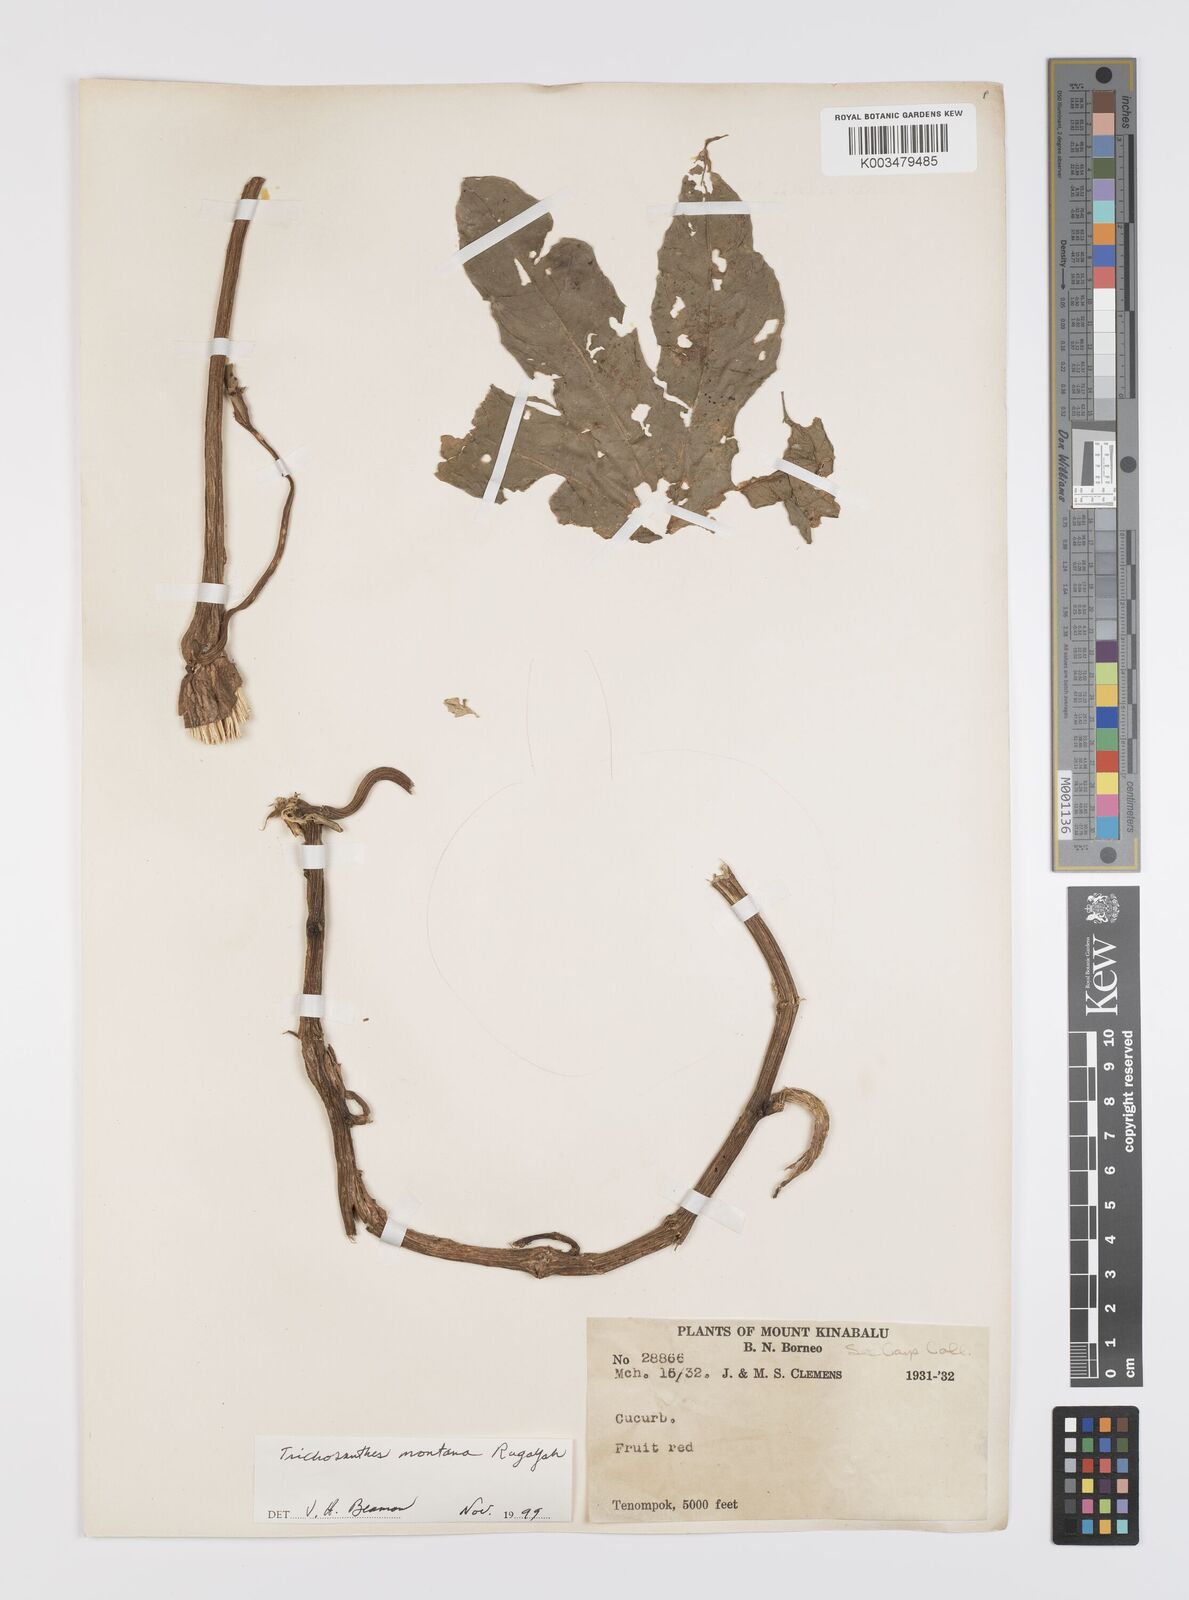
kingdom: Plantae
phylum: Tracheophyta
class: Magnoliopsida
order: Cucurbitales
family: Cucurbitaceae
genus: Trichosanthes
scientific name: Trichosanthes montana
